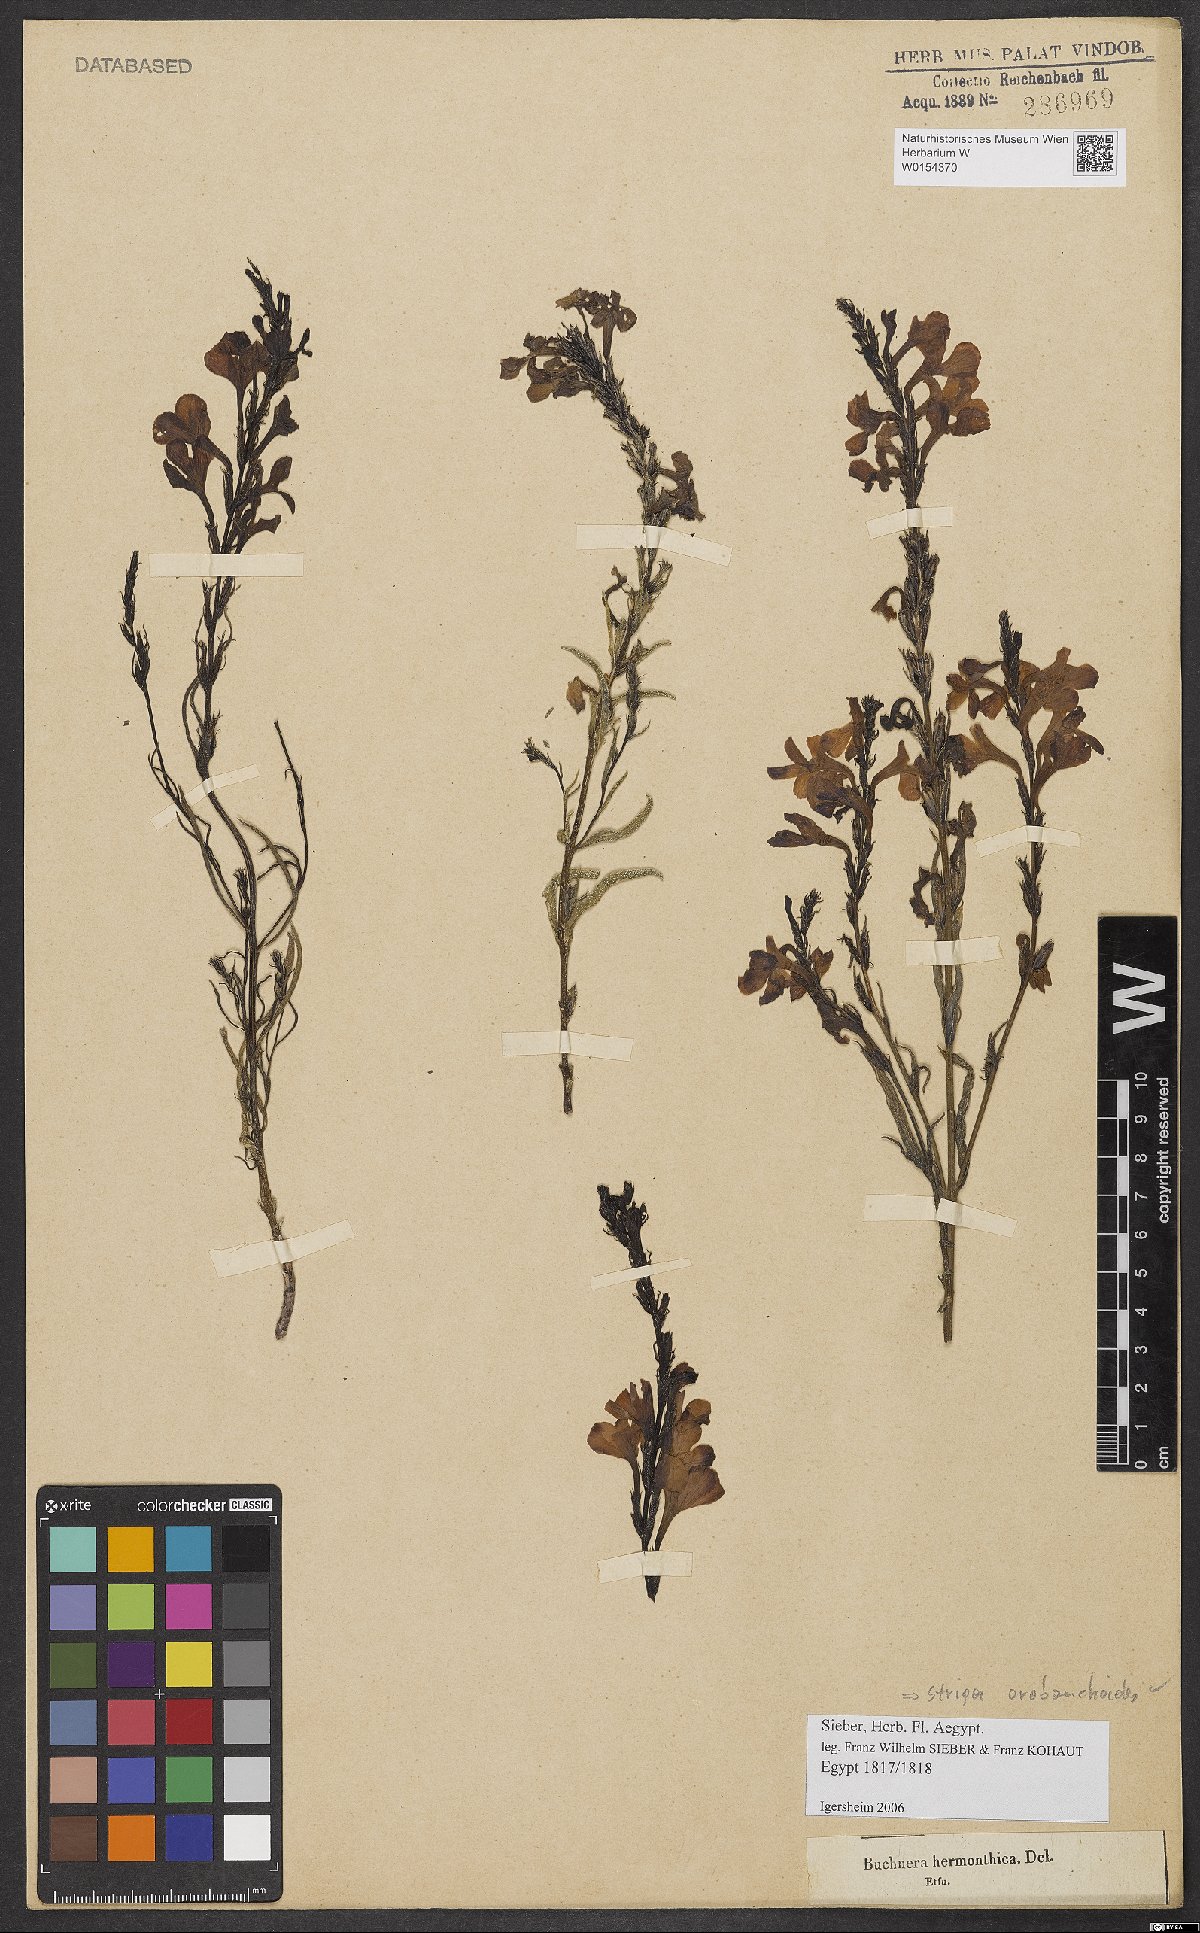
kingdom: Plantae
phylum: Tracheophyta
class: Magnoliopsida
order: Lamiales
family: Orobanchaceae
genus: Striga
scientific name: Striga barthlottii
